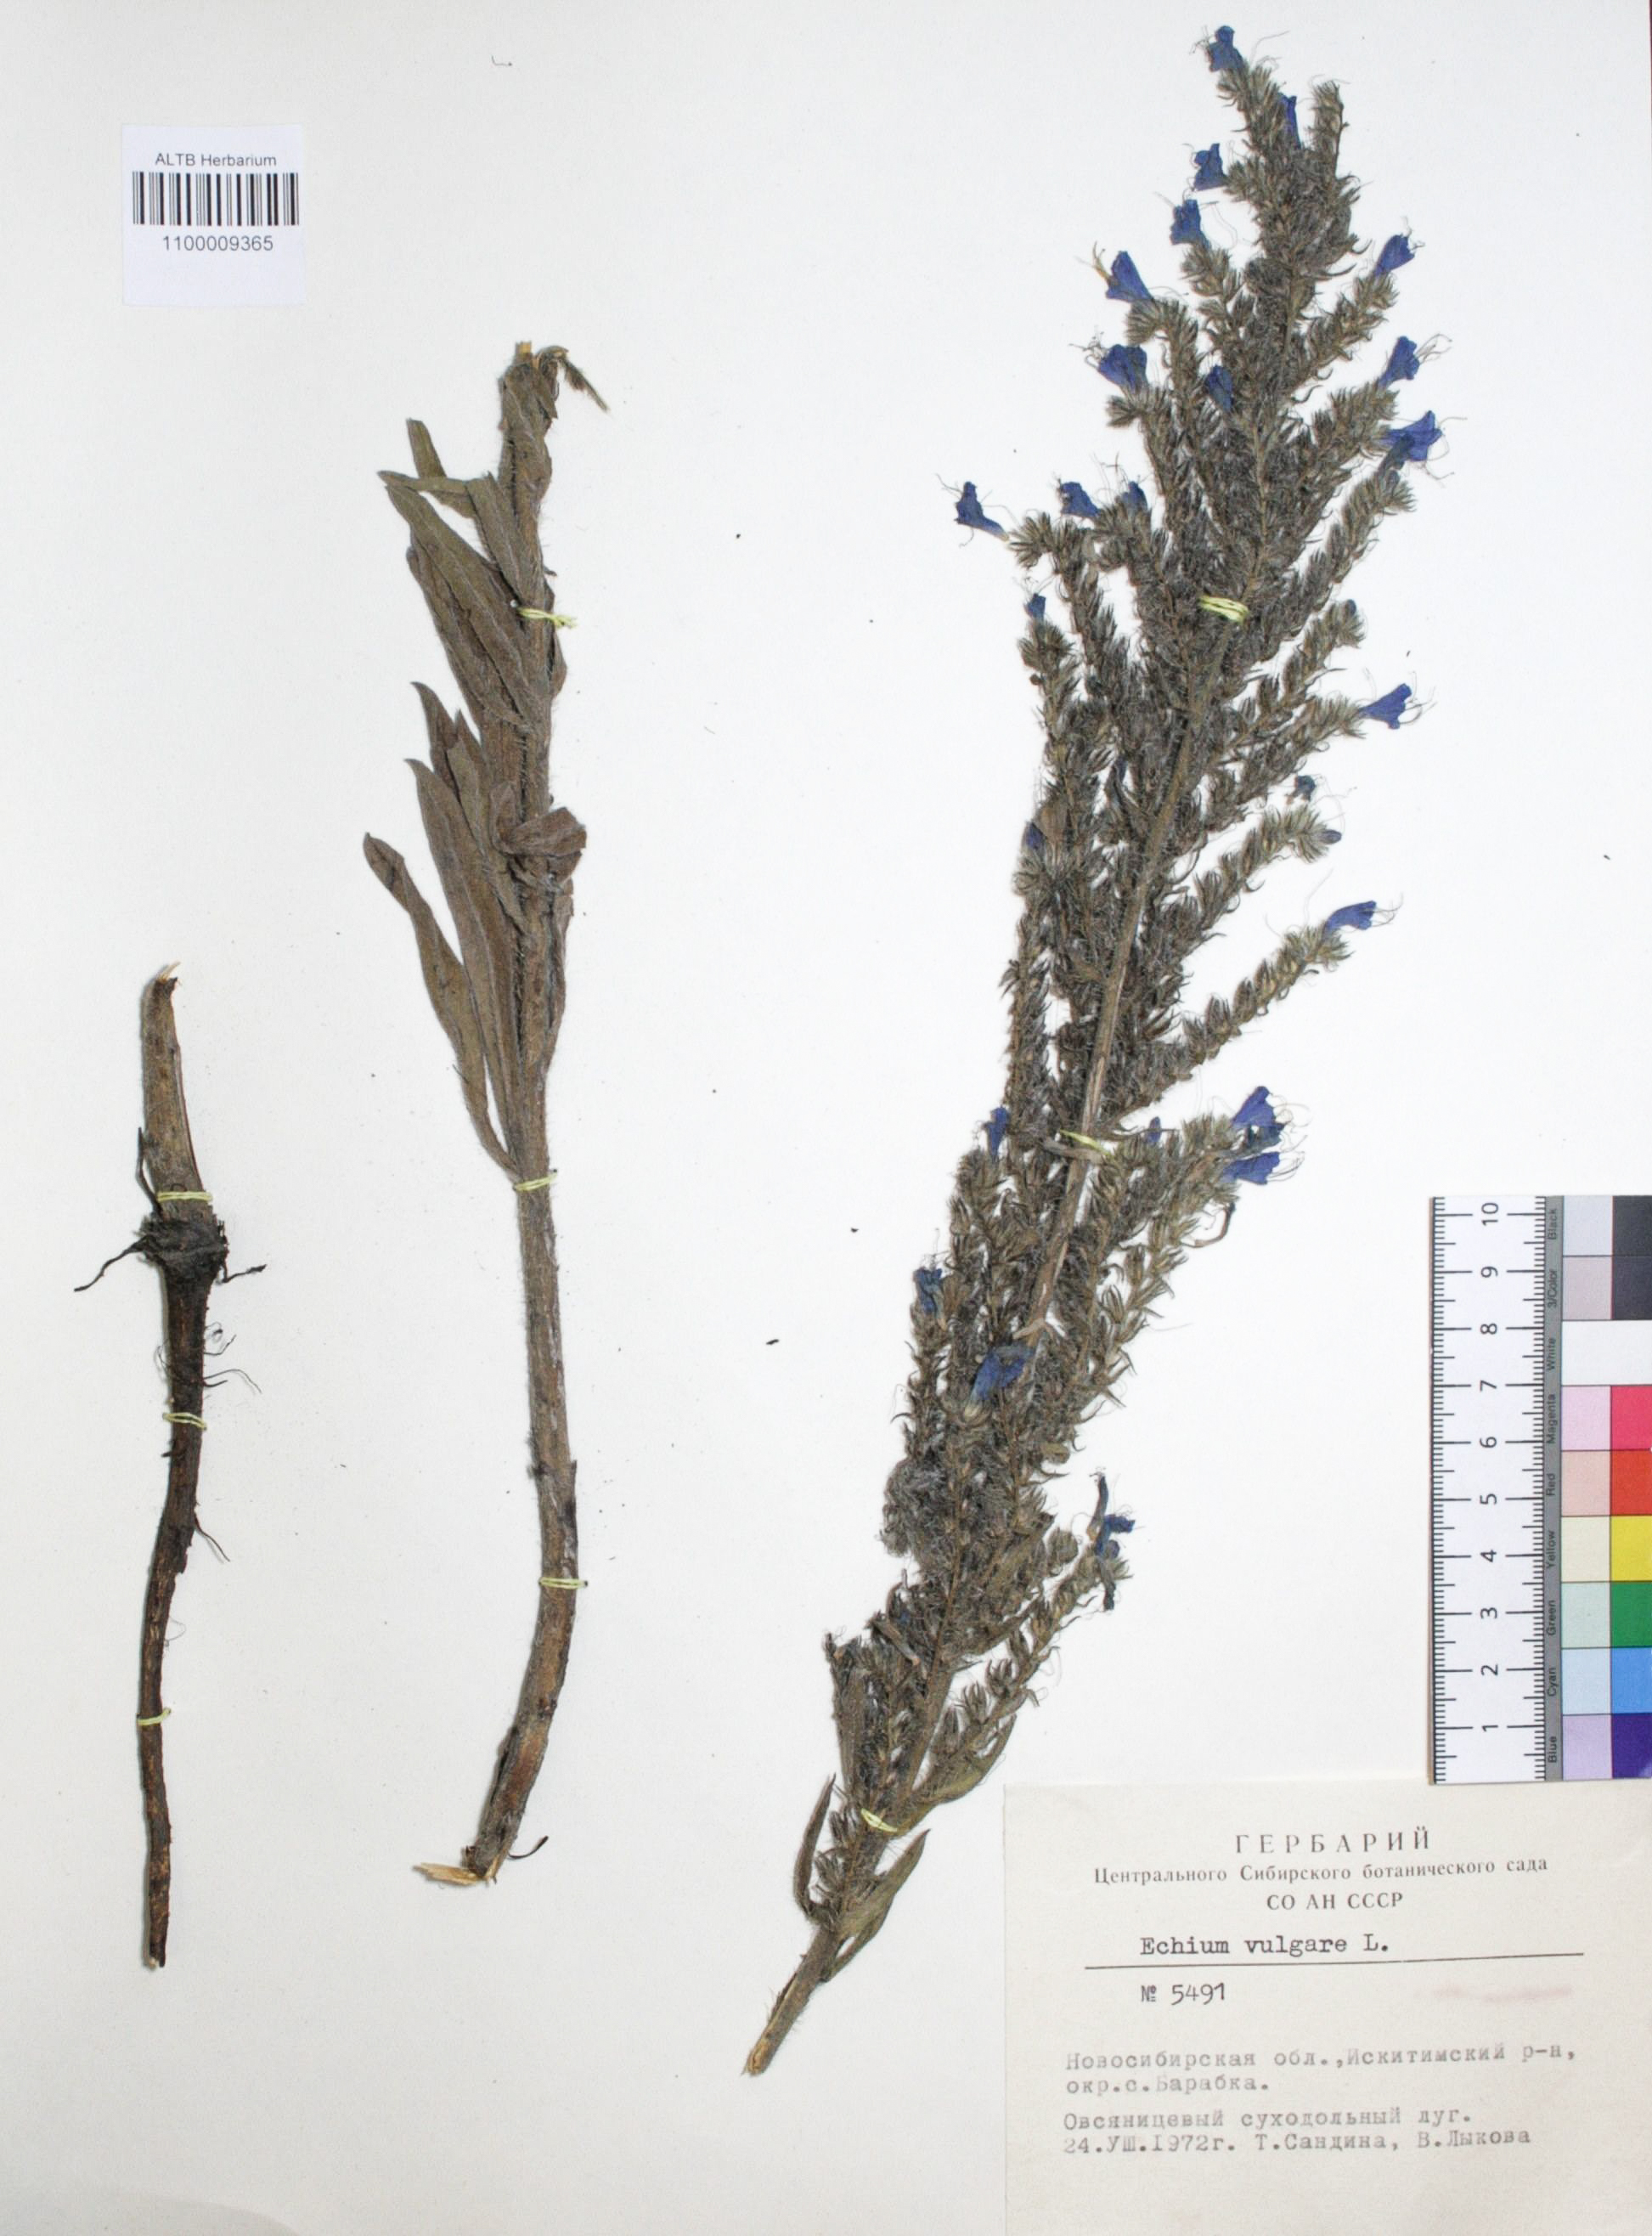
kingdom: Plantae
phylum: Tracheophyta
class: Magnoliopsida
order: Boraginales
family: Boraginaceae
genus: Echium
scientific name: Echium vulgare
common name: Common viper's bugloss
